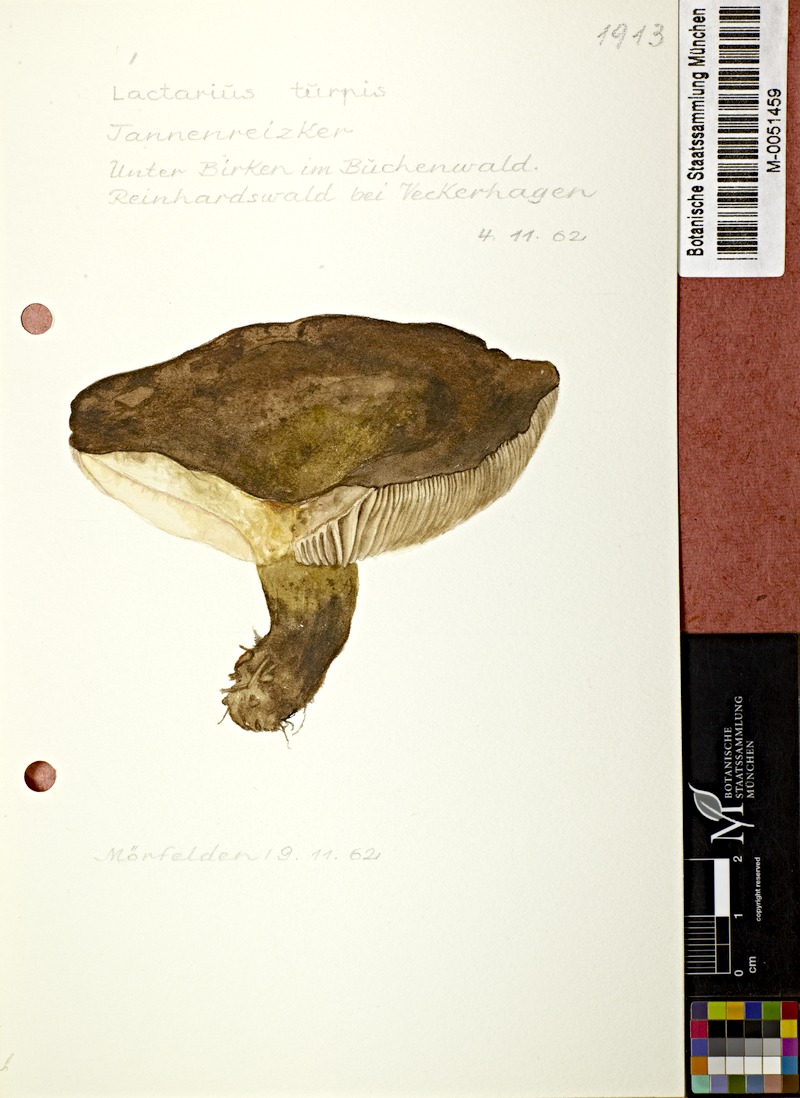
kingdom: Fungi
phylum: Basidiomycota
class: Agaricomycetes
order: Russulales
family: Russulaceae
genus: Lactarius
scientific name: Lactarius plumbeus
